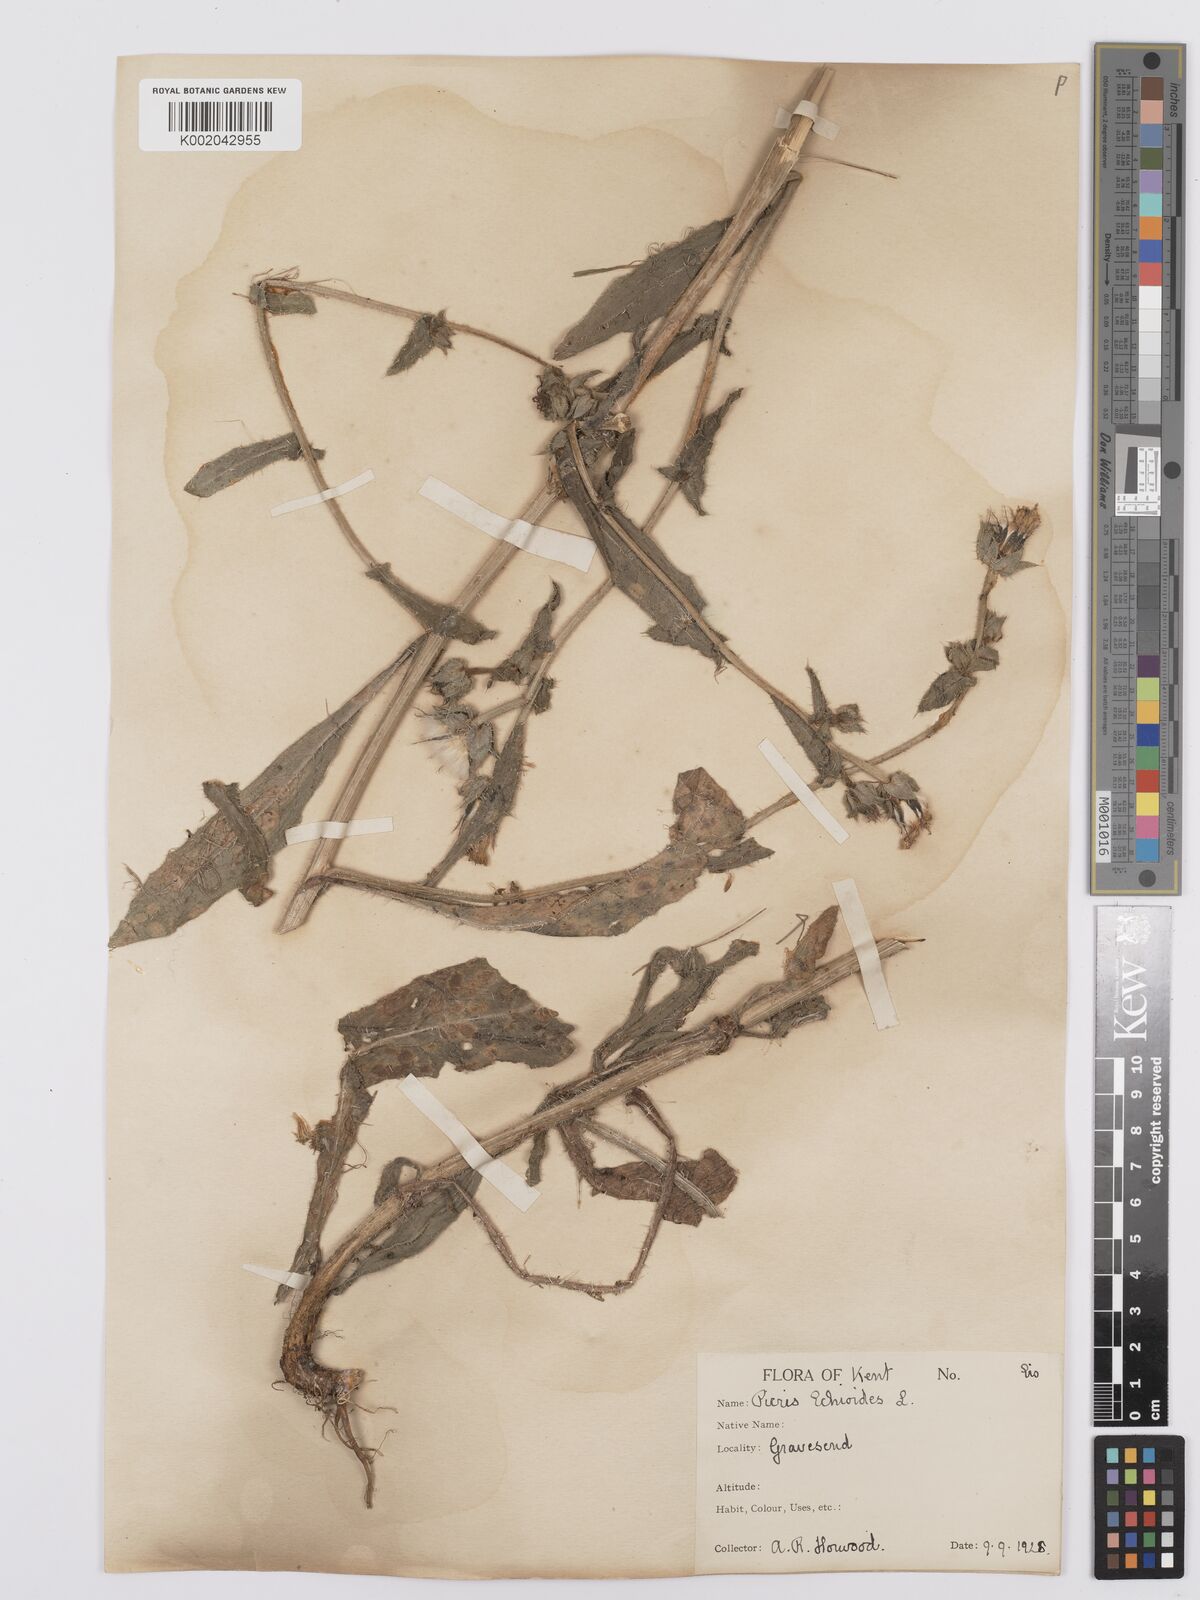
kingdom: Plantae
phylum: Tracheophyta
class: Magnoliopsida
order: Asterales
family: Asteraceae
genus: Helminthotheca
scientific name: Helminthotheca echioides
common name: Ox-tongue
